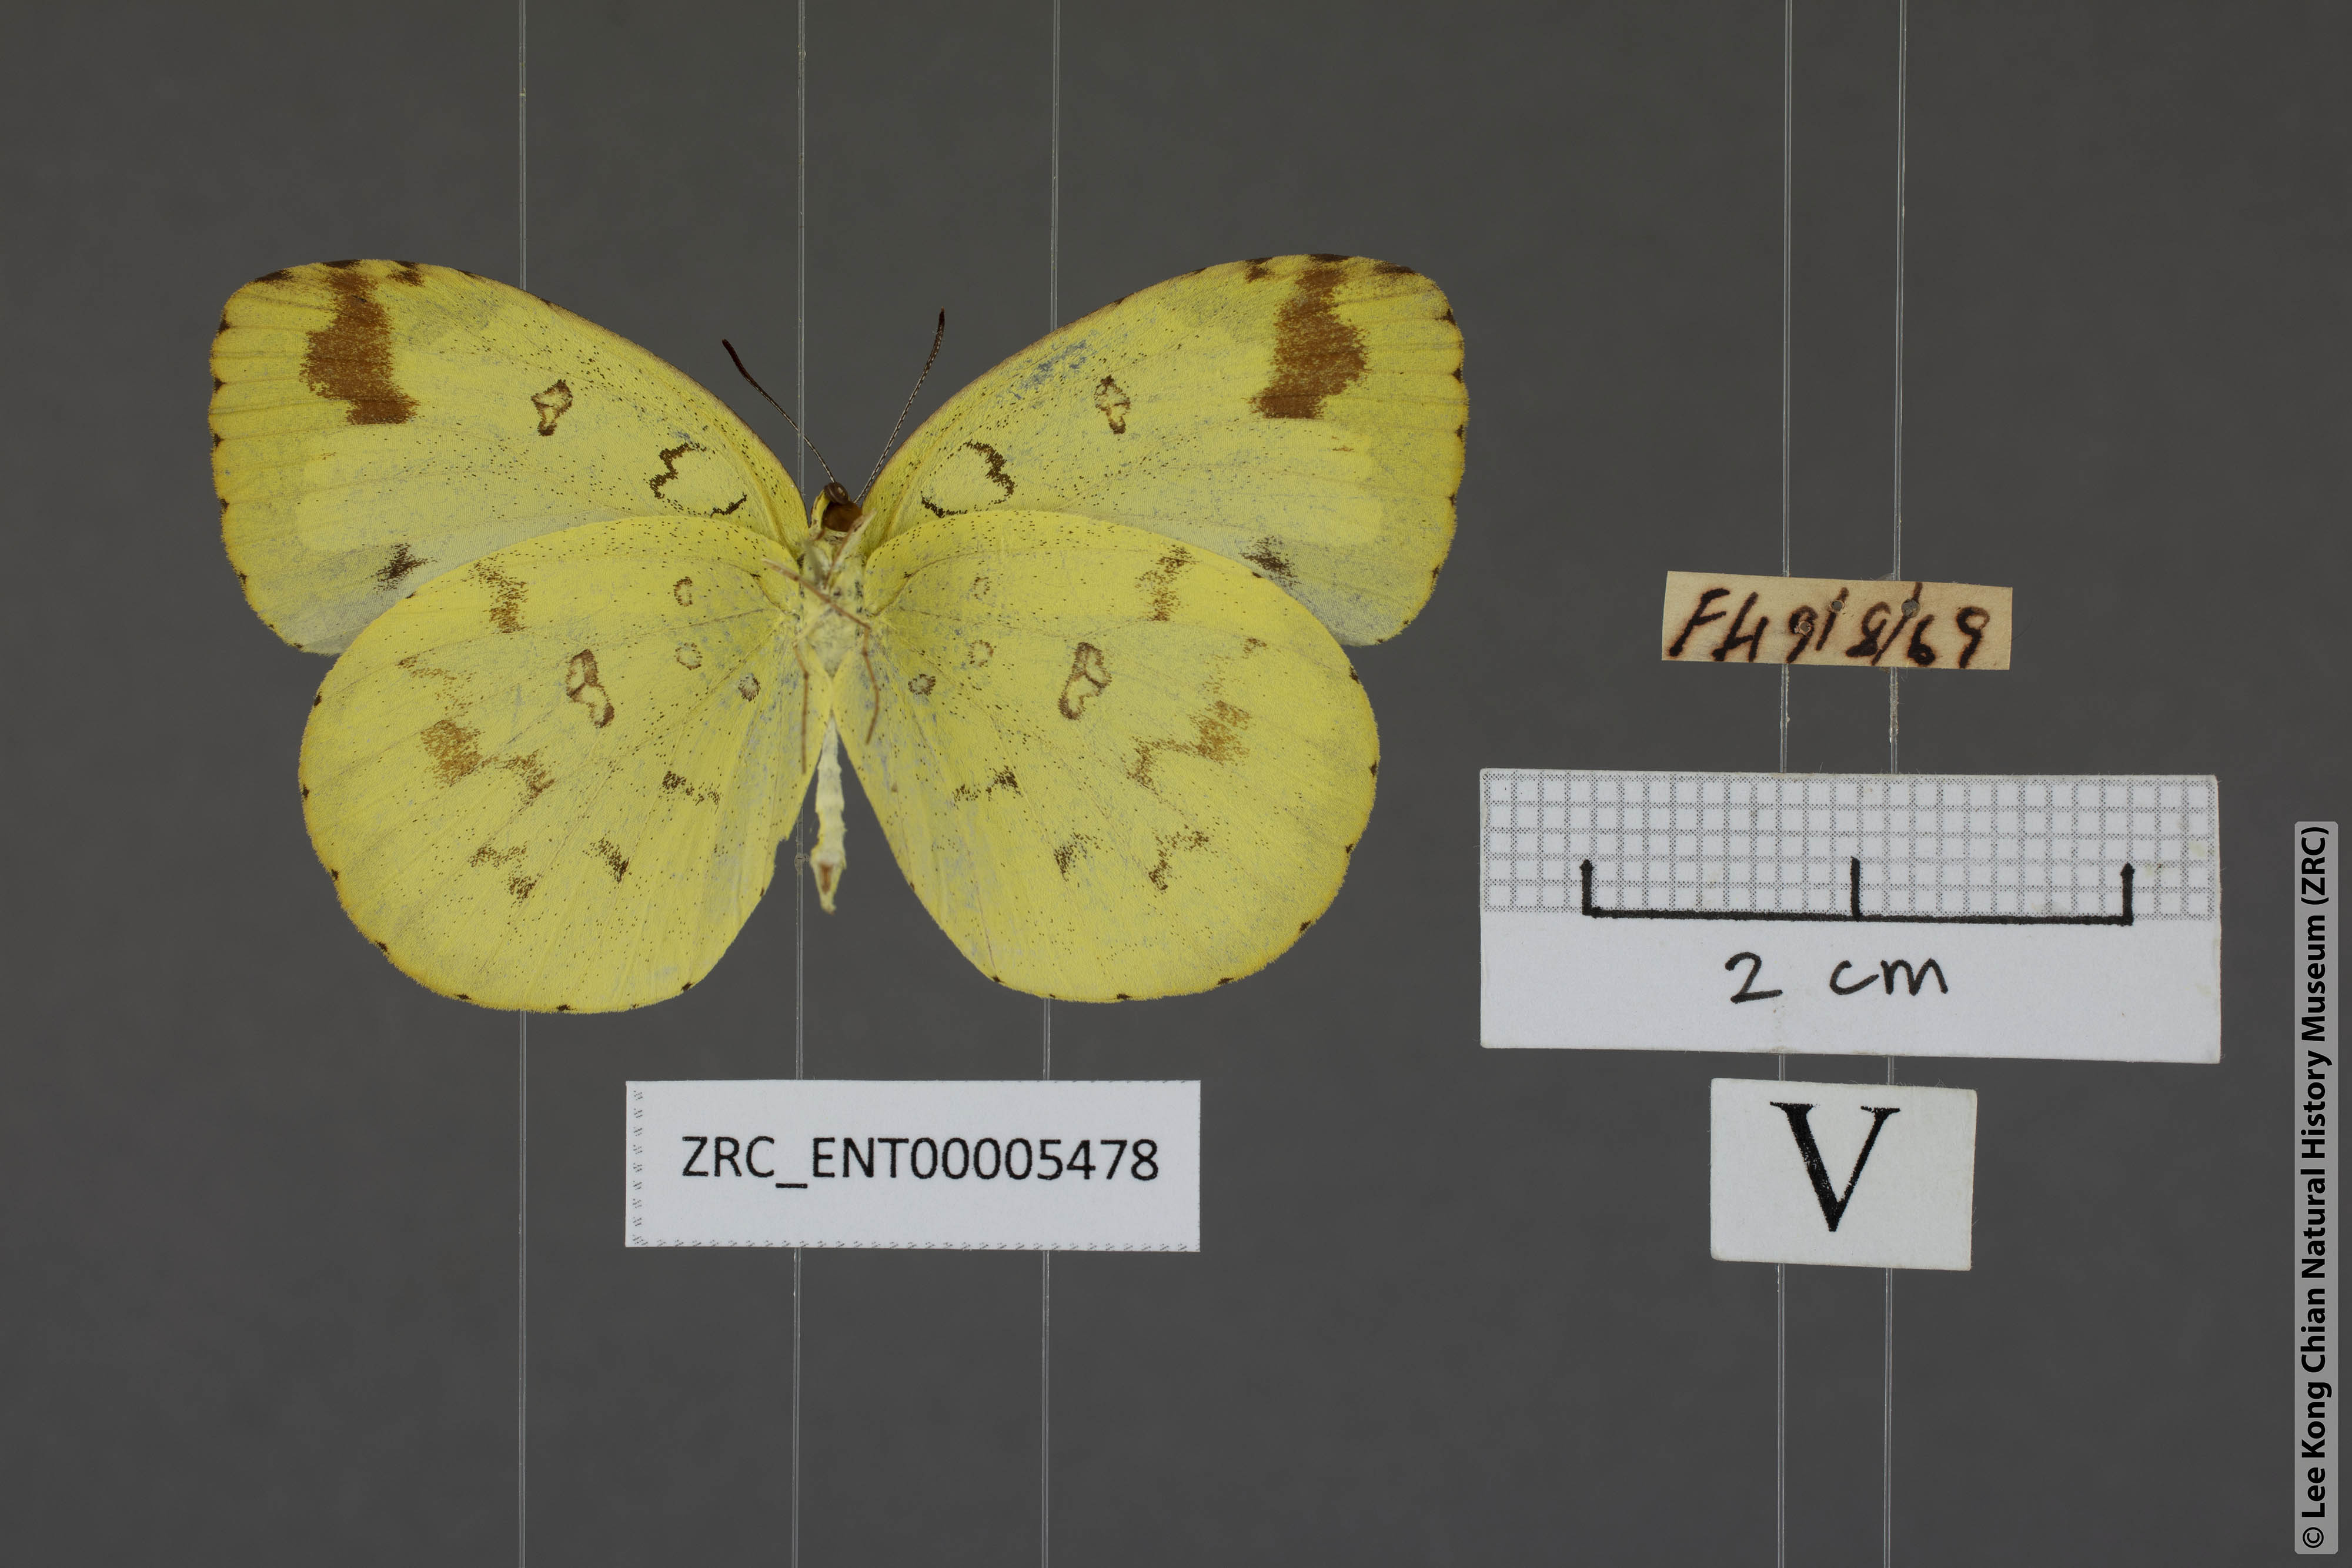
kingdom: Animalia
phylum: Arthropoda
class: Insecta
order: Lepidoptera
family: Pieridae
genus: Eurema
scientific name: Eurema simulatrix
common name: Hill grass yellow
